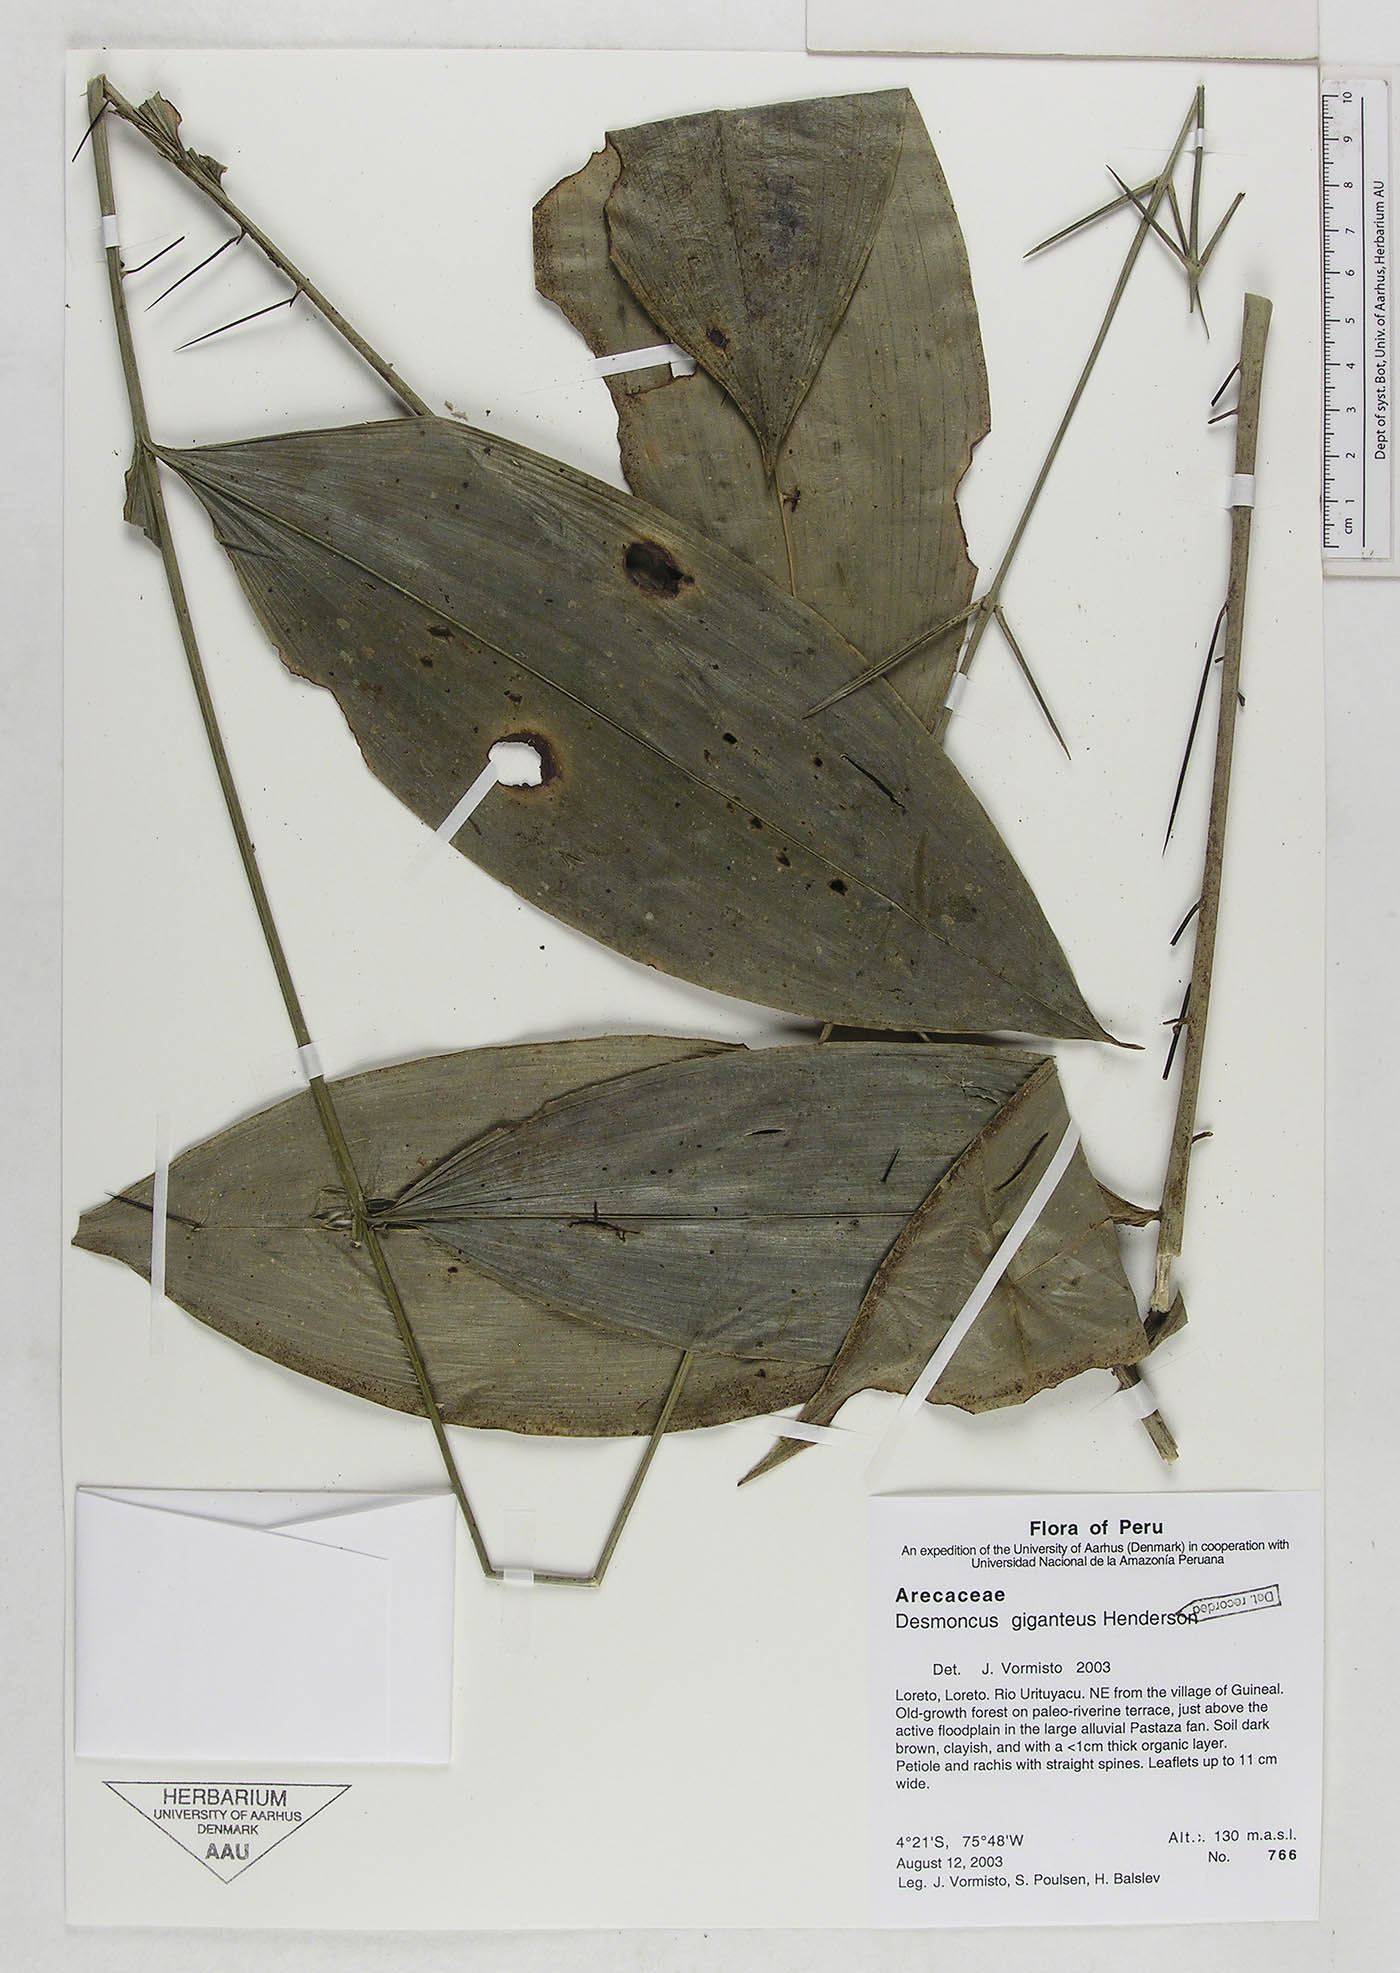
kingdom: Plantae
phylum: Tracheophyta
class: Liliopsida
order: Arecales
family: Arecaceae
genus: Desmoncus
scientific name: Desmoncus giganteus
